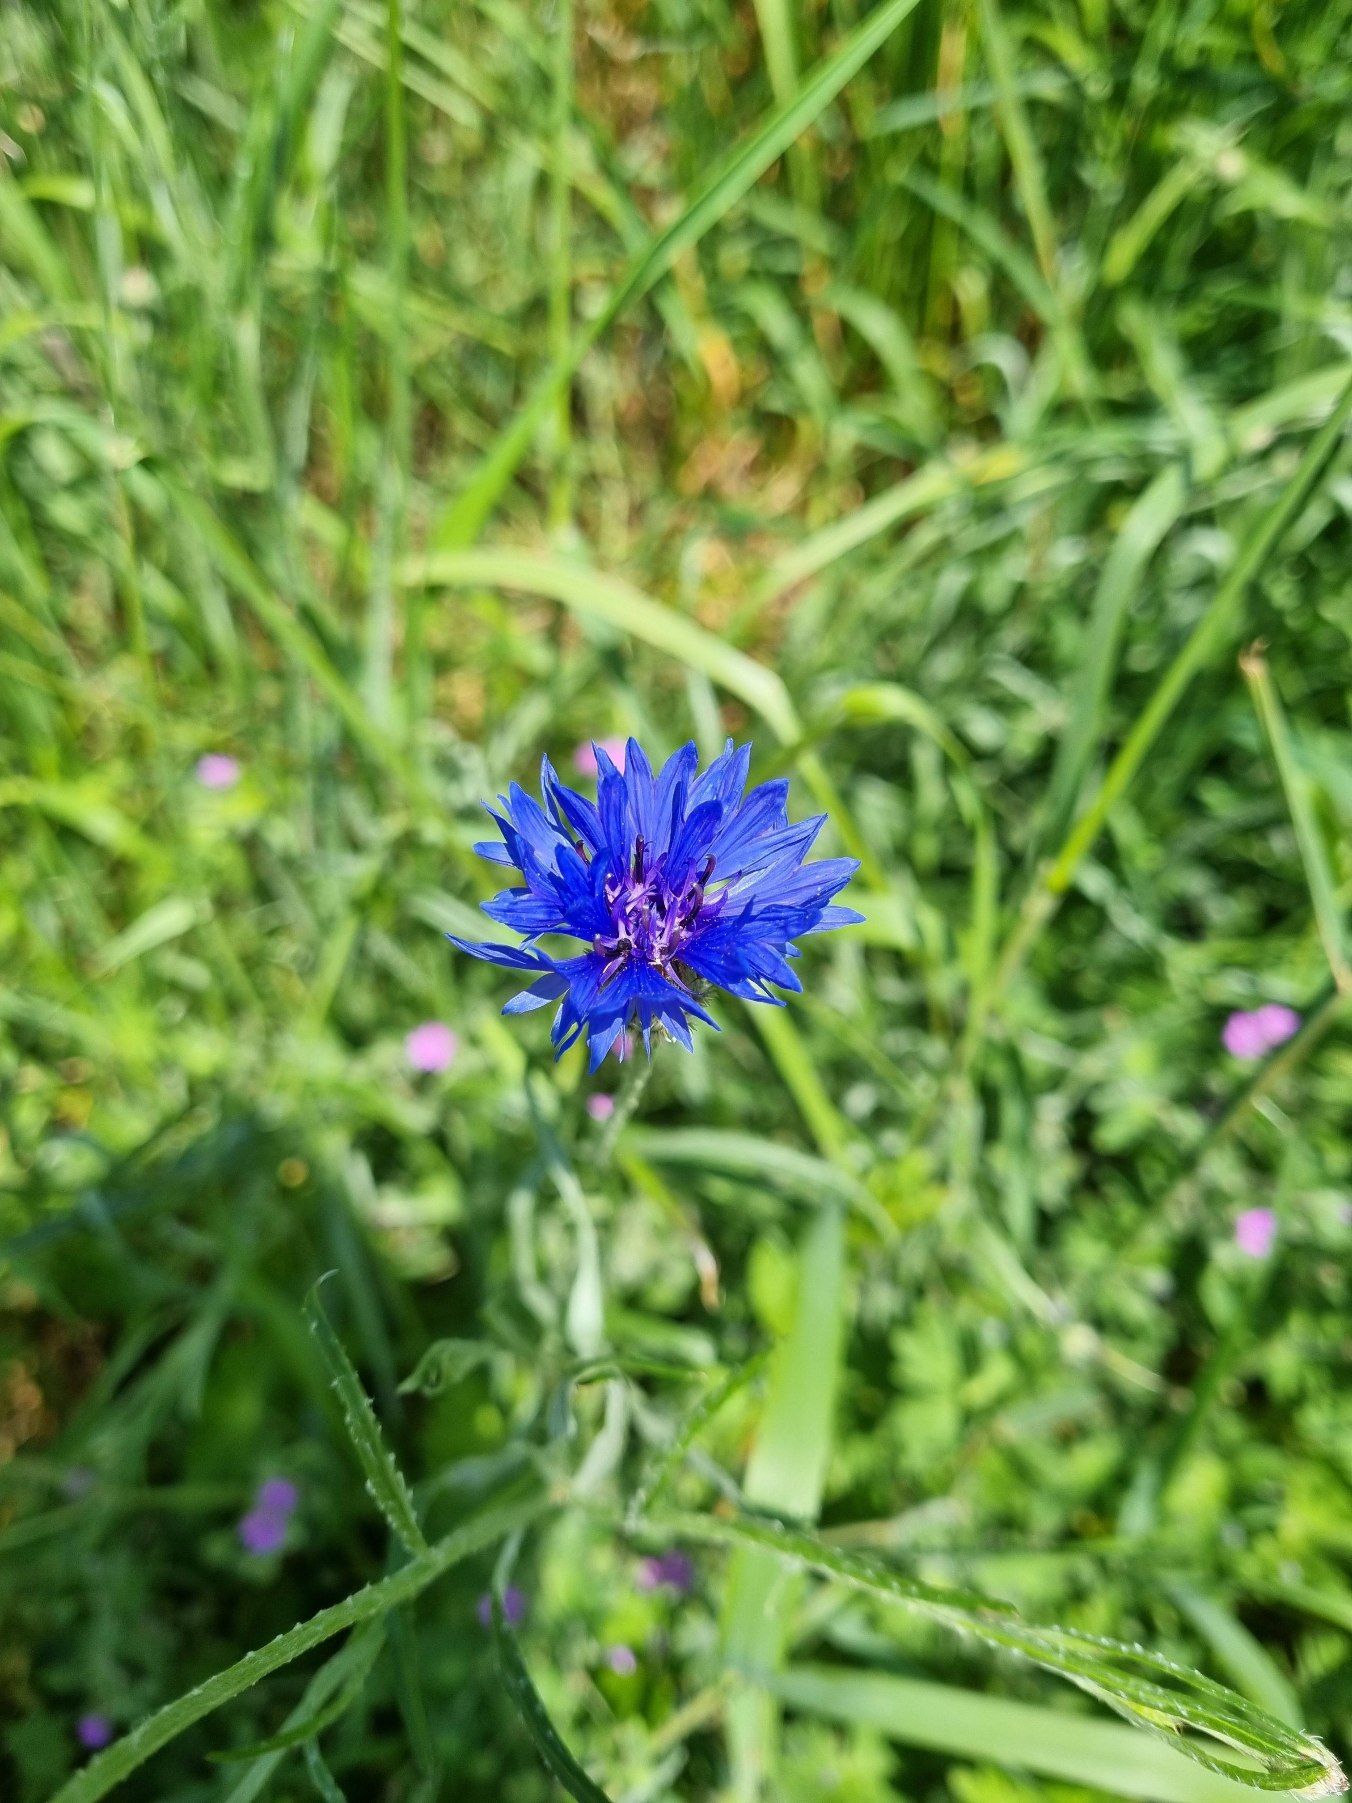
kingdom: Plantae
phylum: Tracheophyta
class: Magnoliopsida
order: Asterales
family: Asteraceae
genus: Centaurea
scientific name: Centaurea cyanus
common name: Kornblomst
